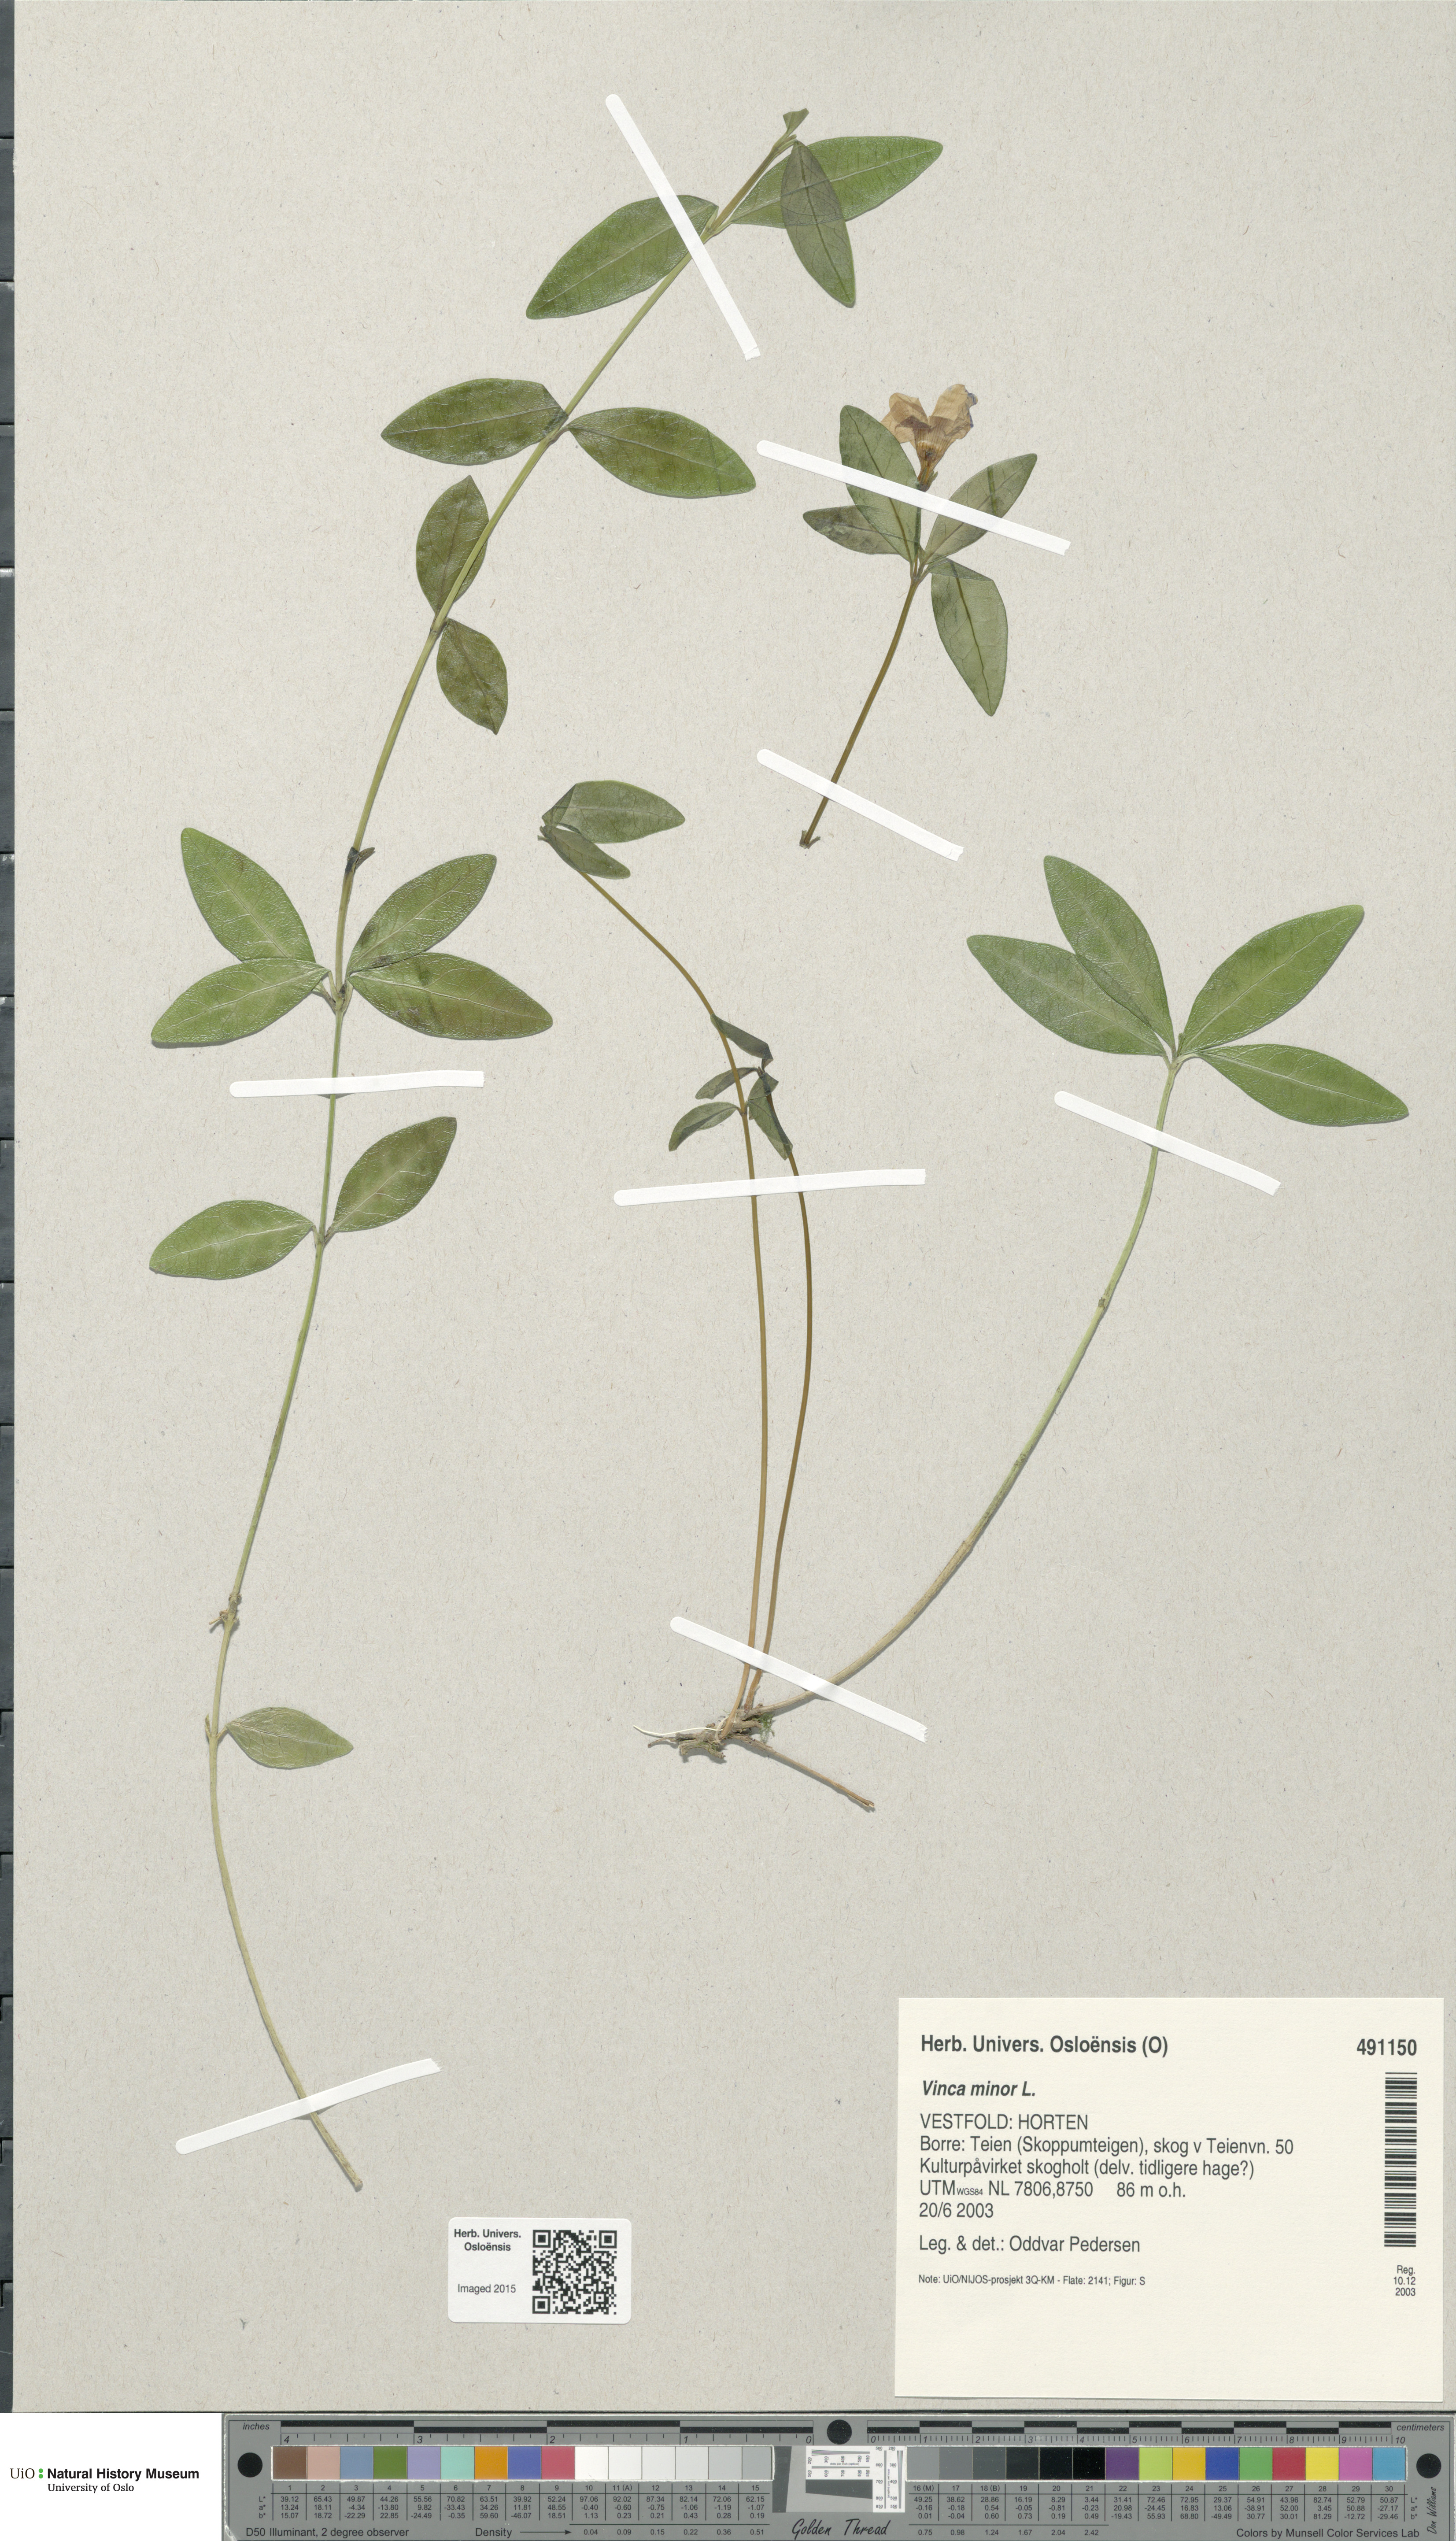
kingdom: Plantae
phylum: Tracheophyta
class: Magnoliopsida
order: Gentianales
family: Apocynaceae
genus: Vinca
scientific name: Vinca minor
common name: Lesser periwinkle
